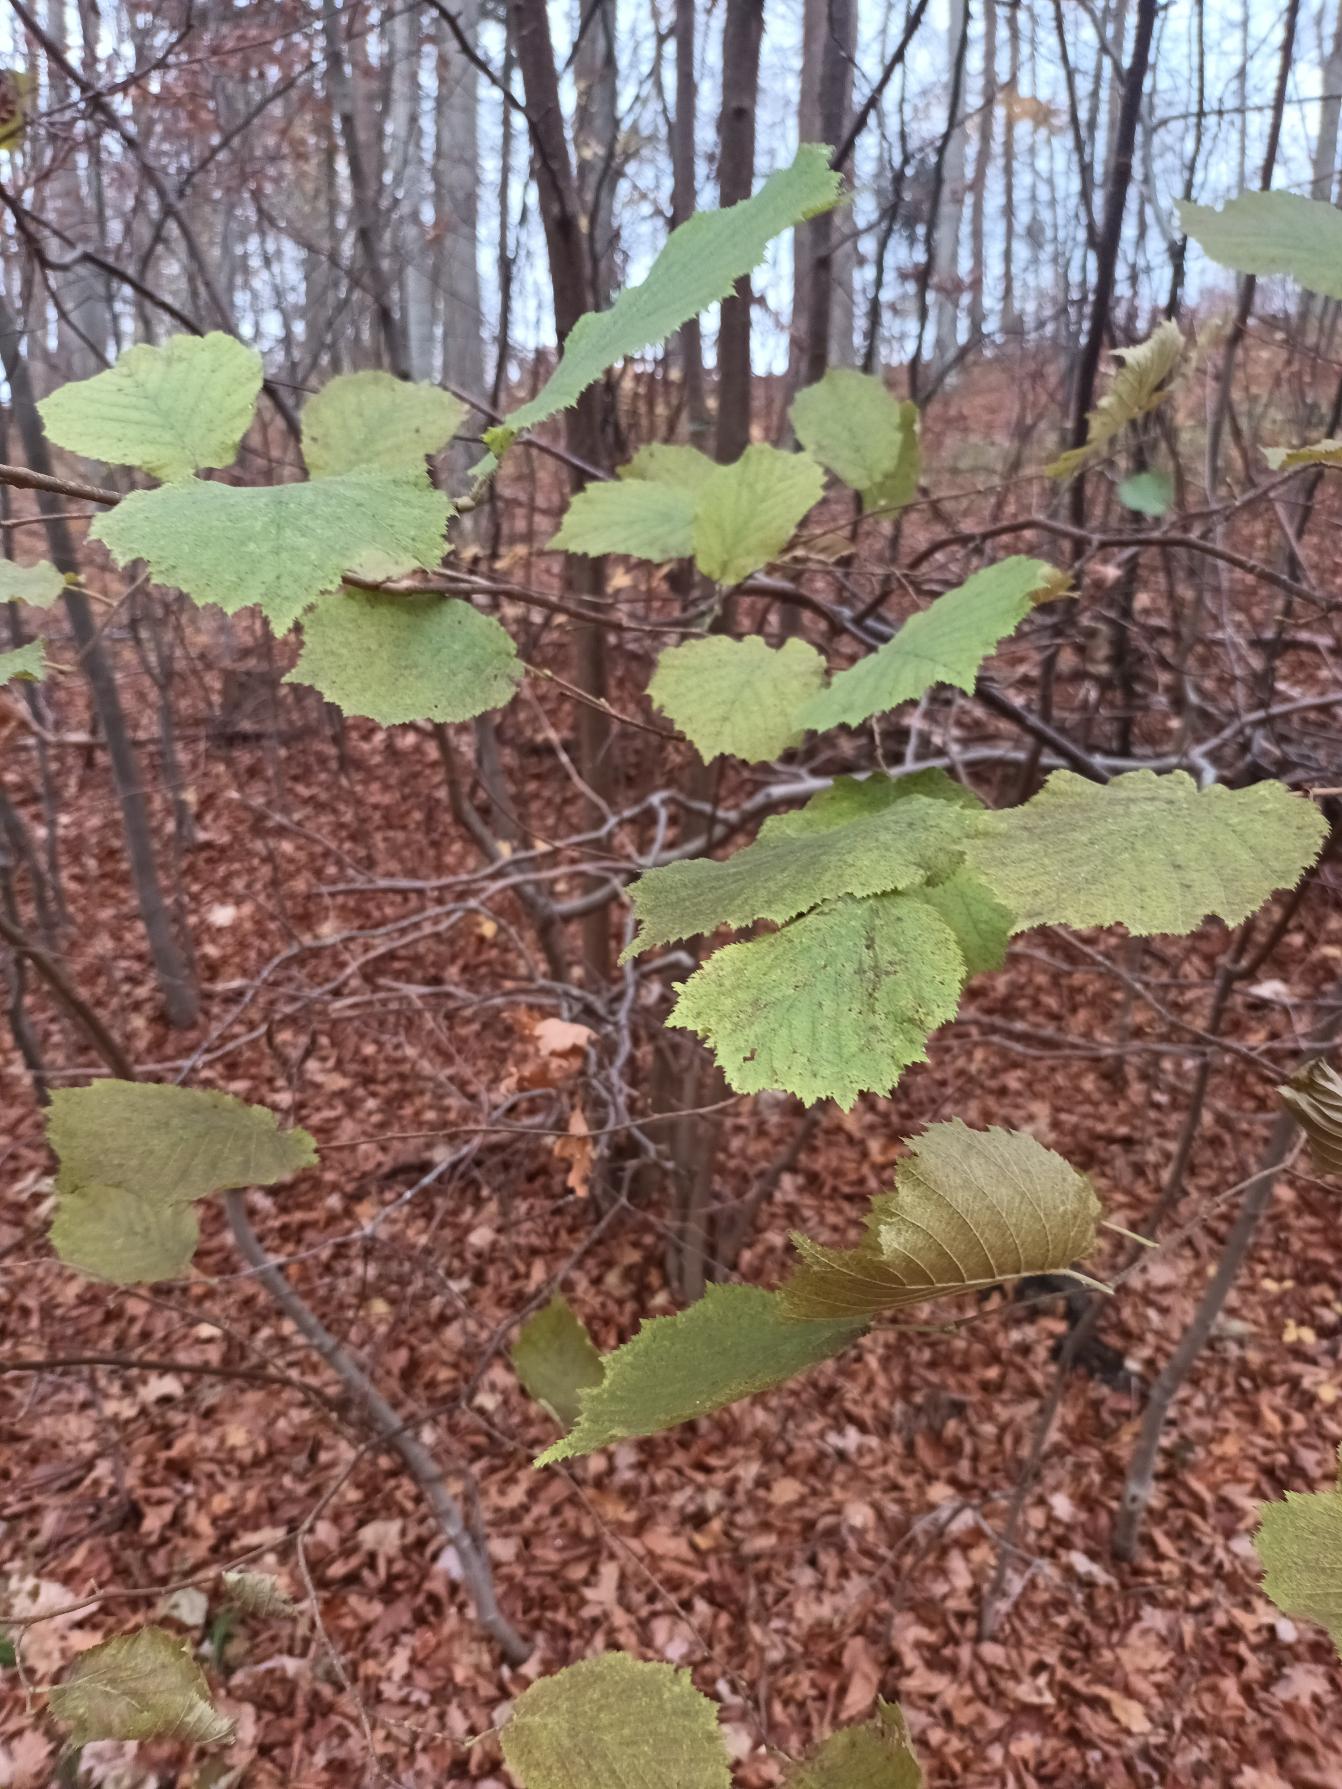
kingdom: Plantae
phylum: Tracheophyta
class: Magnoliopsida
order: Fagales
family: Betulaceae
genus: Corylus
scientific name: Corylus avellana
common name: Hassel
